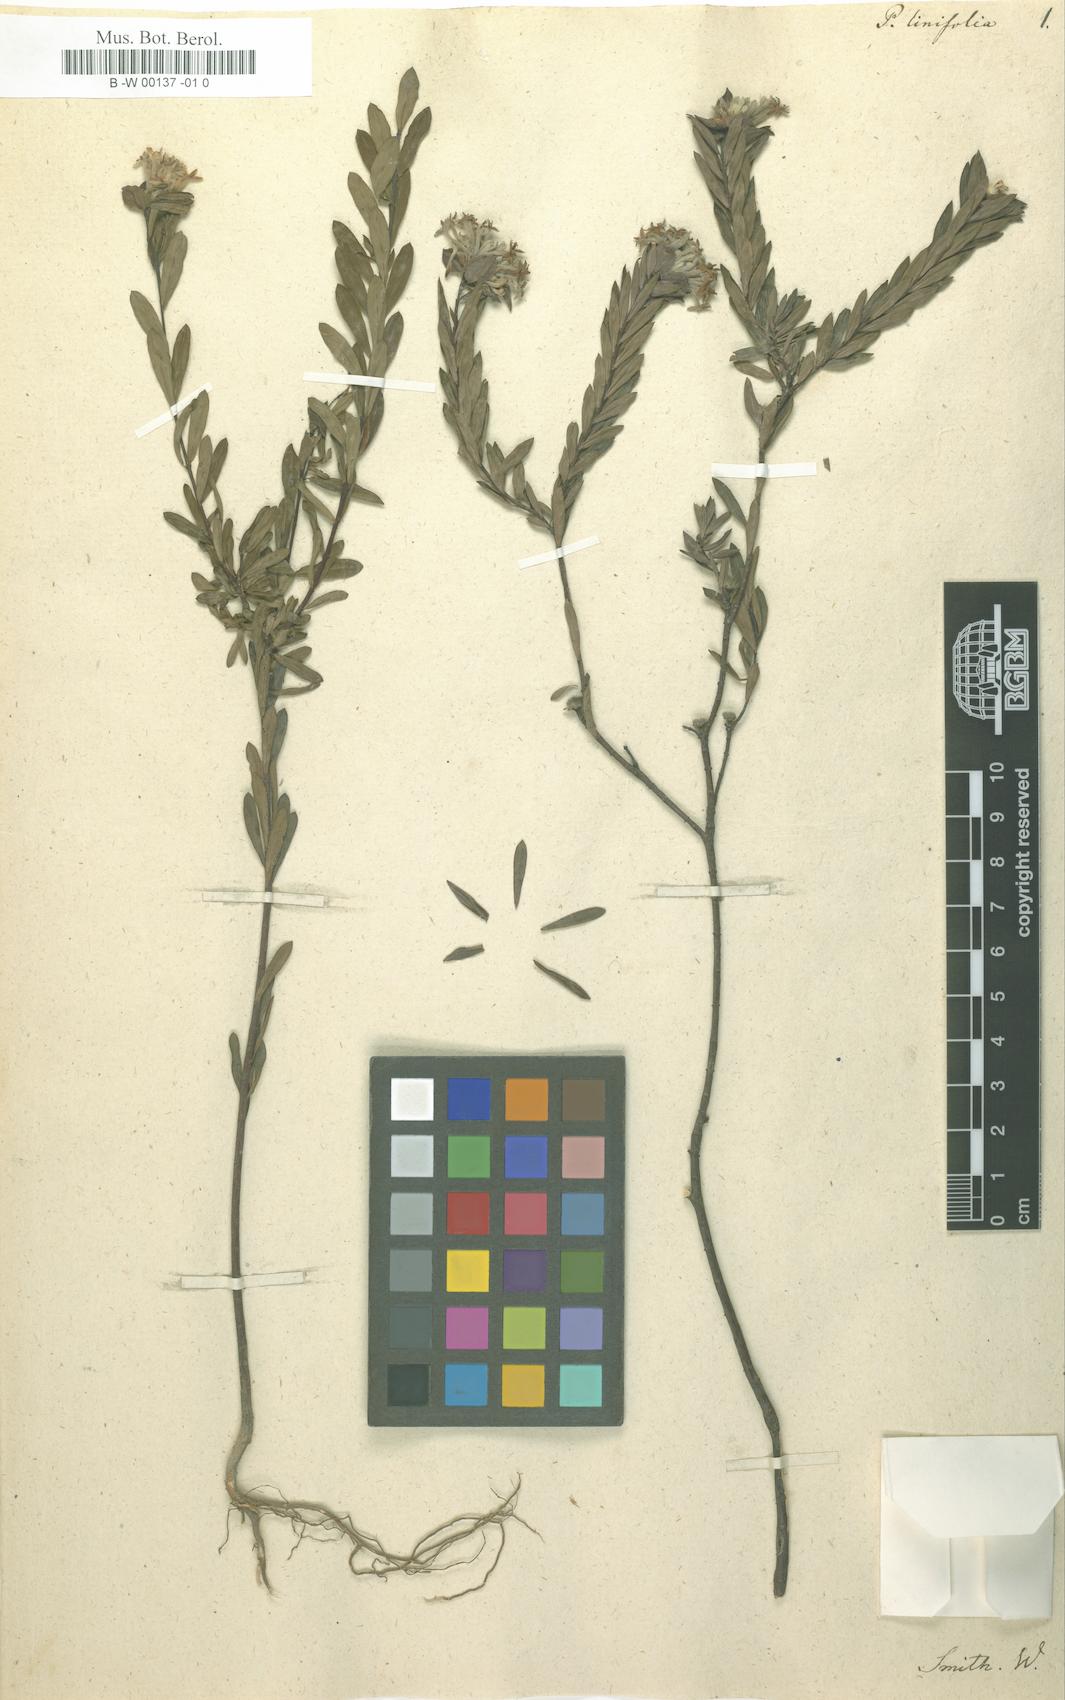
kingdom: Plantae
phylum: Tracheophyta
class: Magnoliopsida
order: Malvales
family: Thymelaeaceae
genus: Pimelea
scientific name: Pimelea linifolia
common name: Queen-of-the-bush
